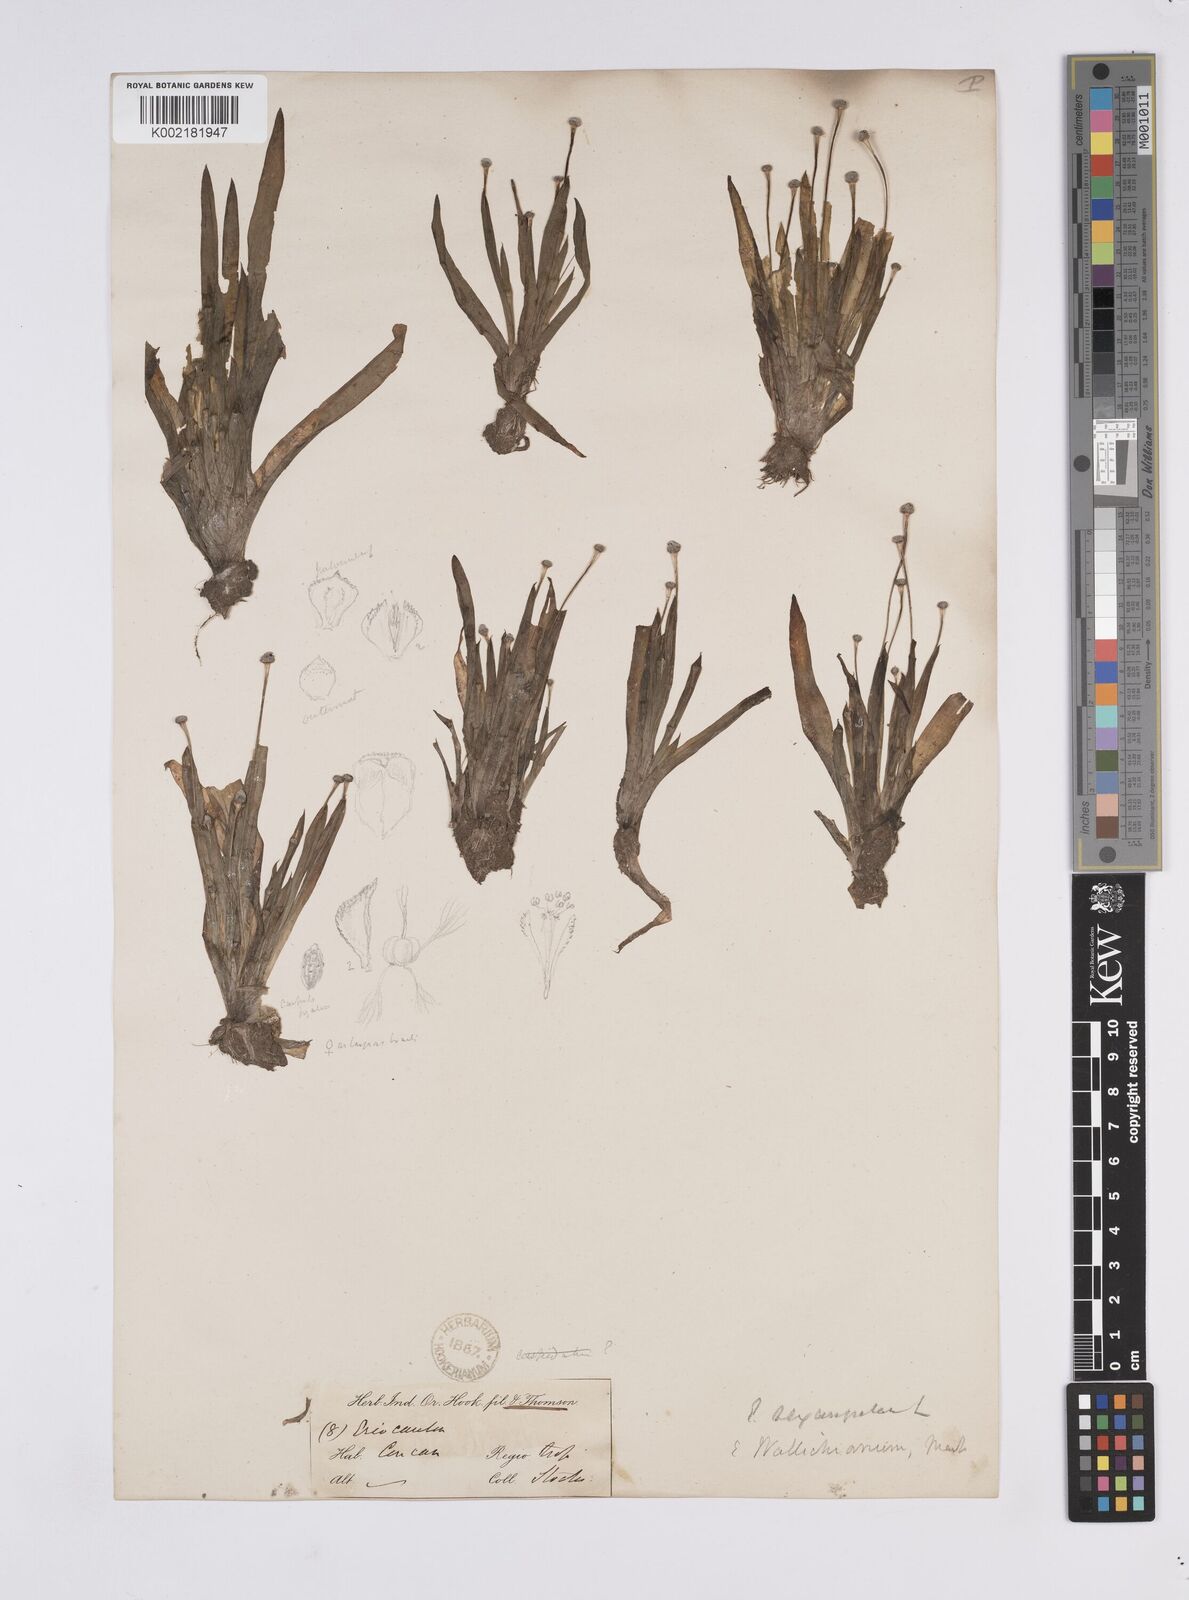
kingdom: Plantae
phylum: Tracheophyta
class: Liliopsida
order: Poales
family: Eriocaulaceae
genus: Eriocaulon
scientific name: Eriocaulon sexangulare
